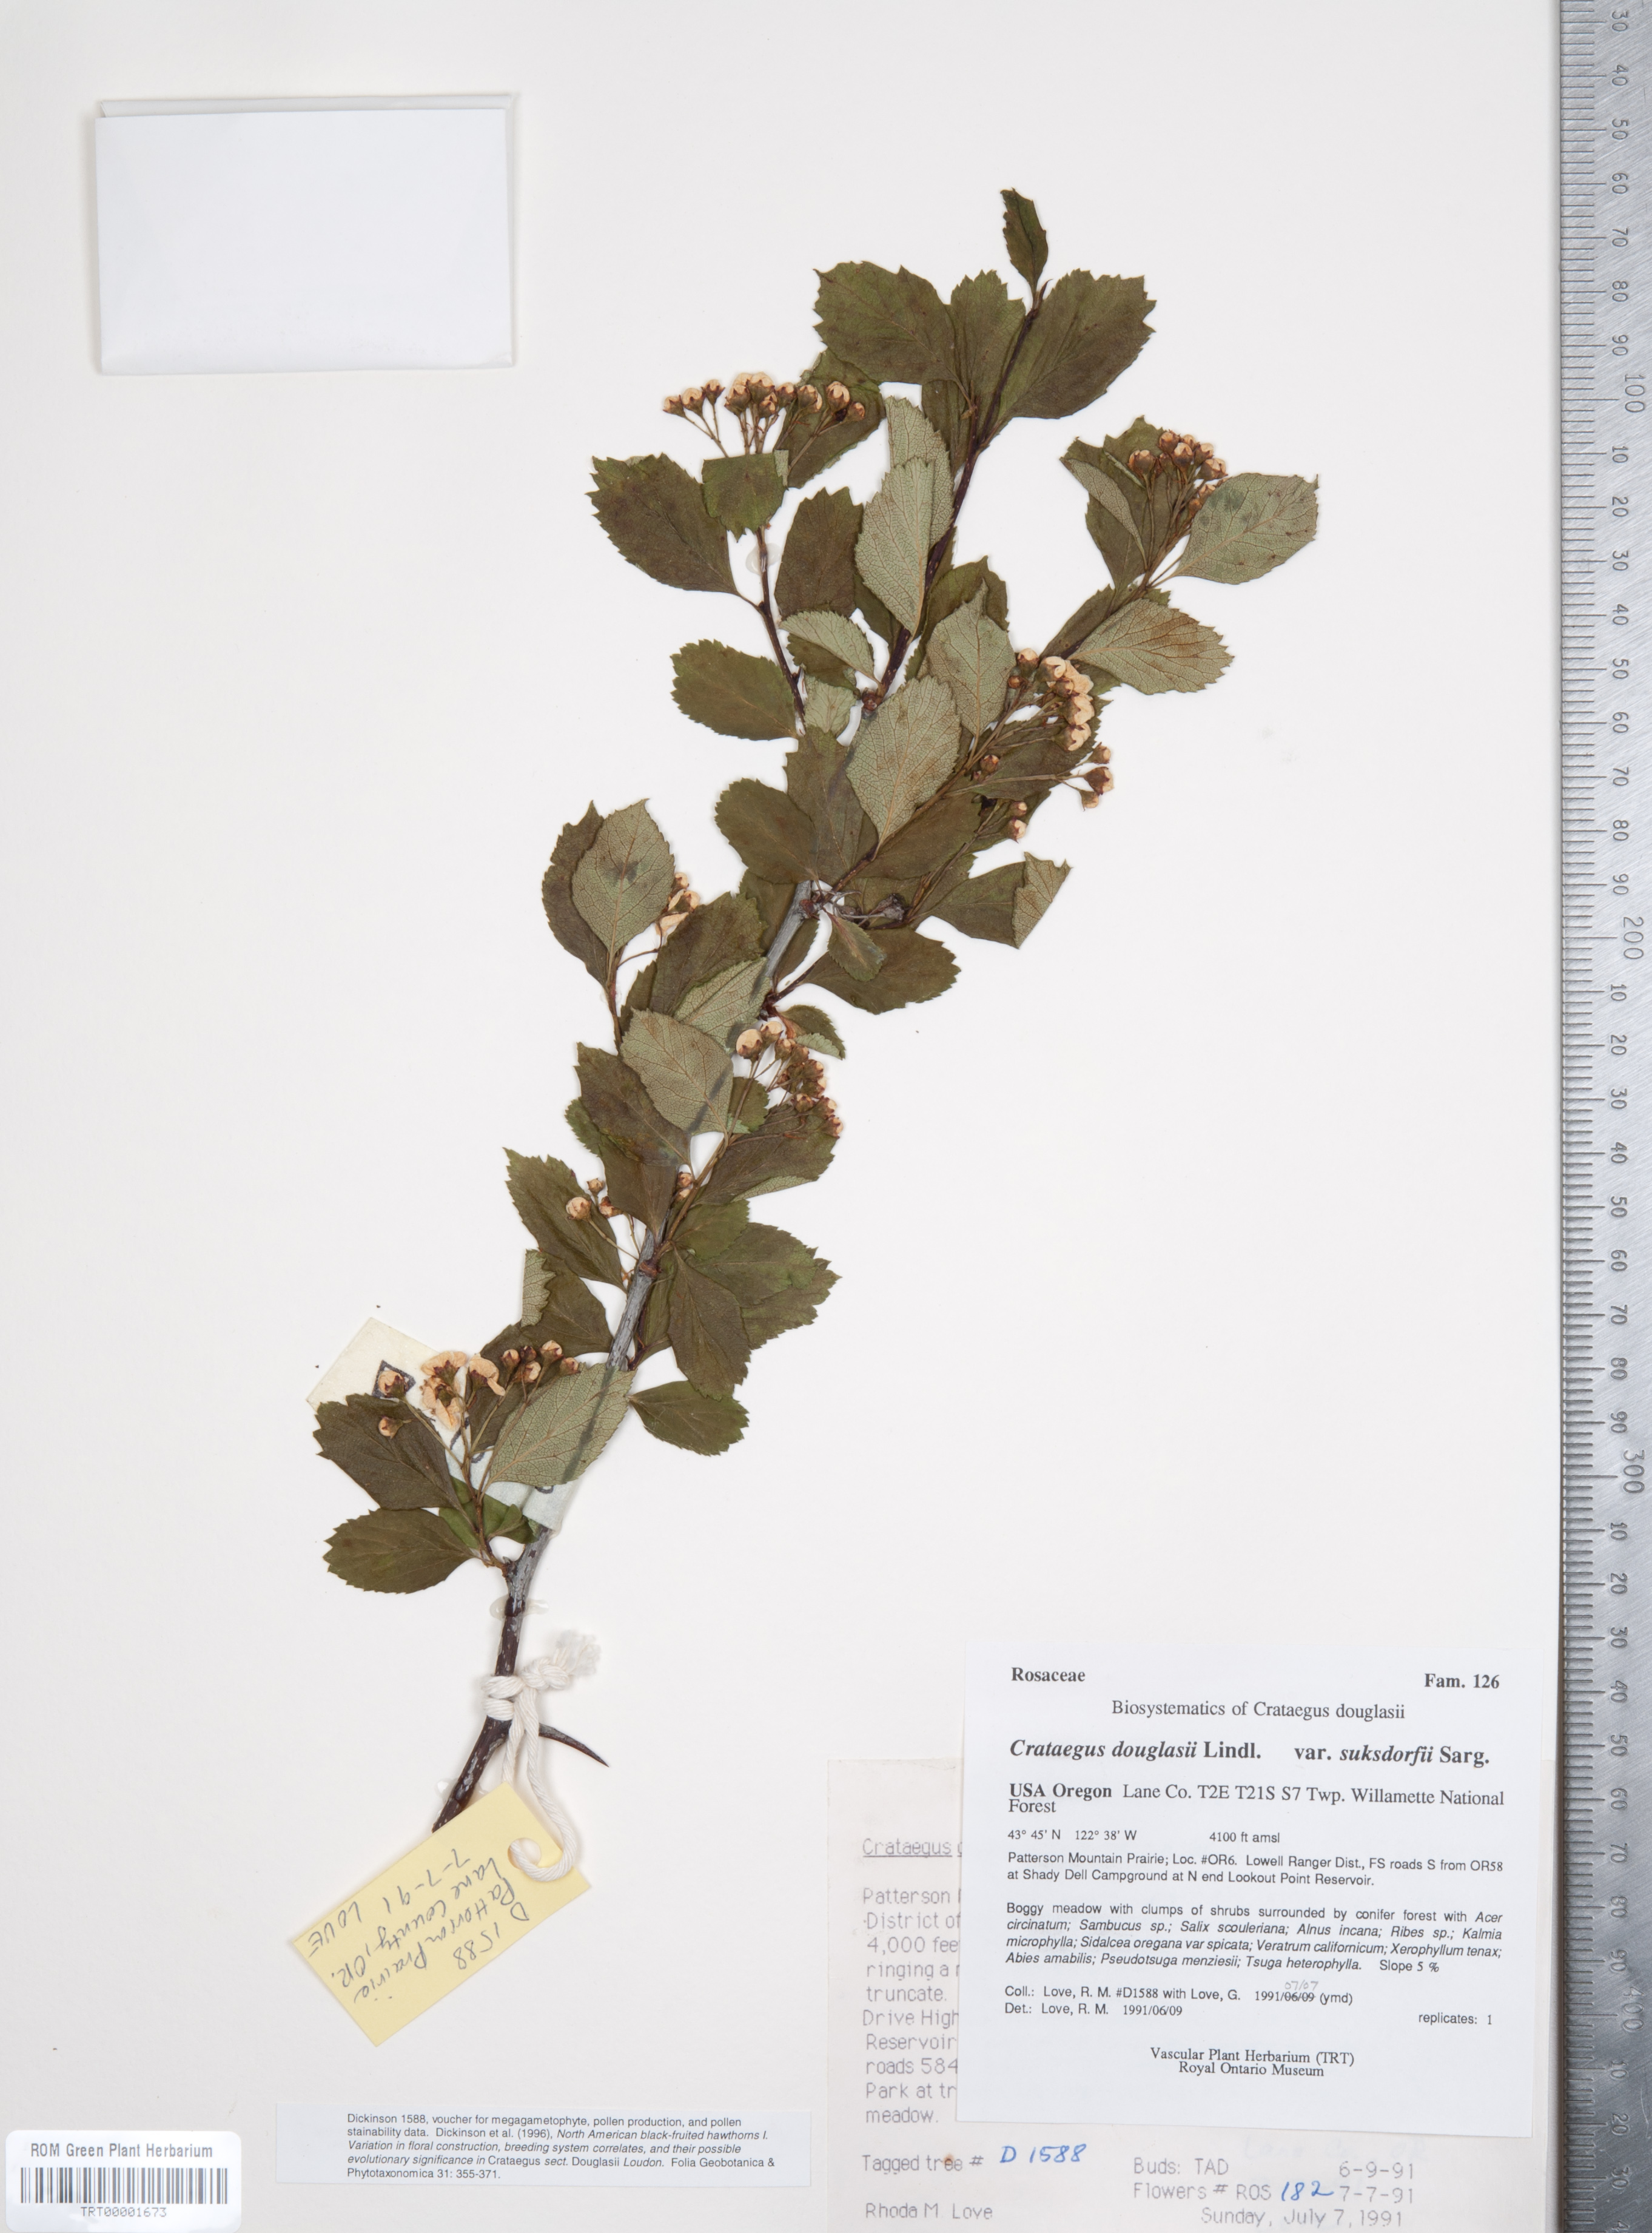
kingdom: Plantae
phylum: Tracheophyta
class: Magnoliopsida
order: Rosales
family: Rosaceae
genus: Crataegus
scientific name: Crataegus gaylussacia
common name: Huckleberry hawthorn
